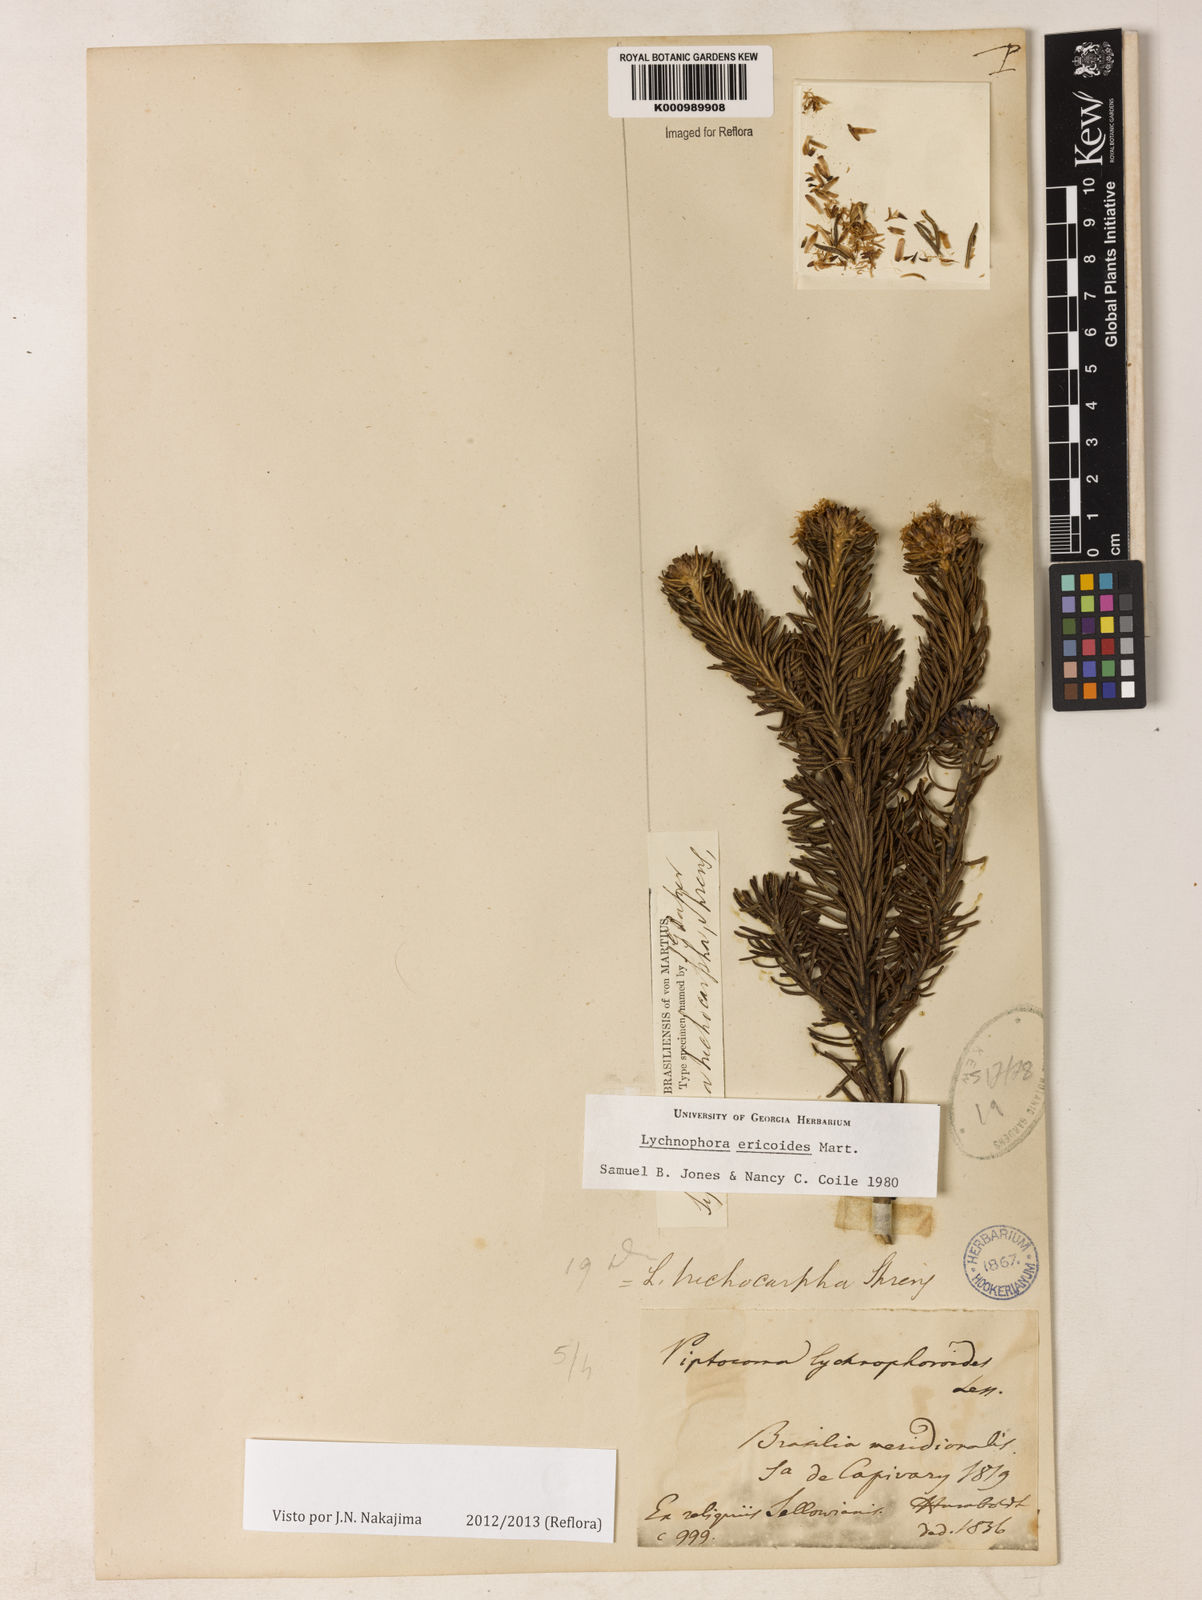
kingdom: Plantae
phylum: Tracheophyta
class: Magnoliopsida
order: Asterales
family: Asteraceae
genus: Lychnophora
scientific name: Lychnophora ericoides
